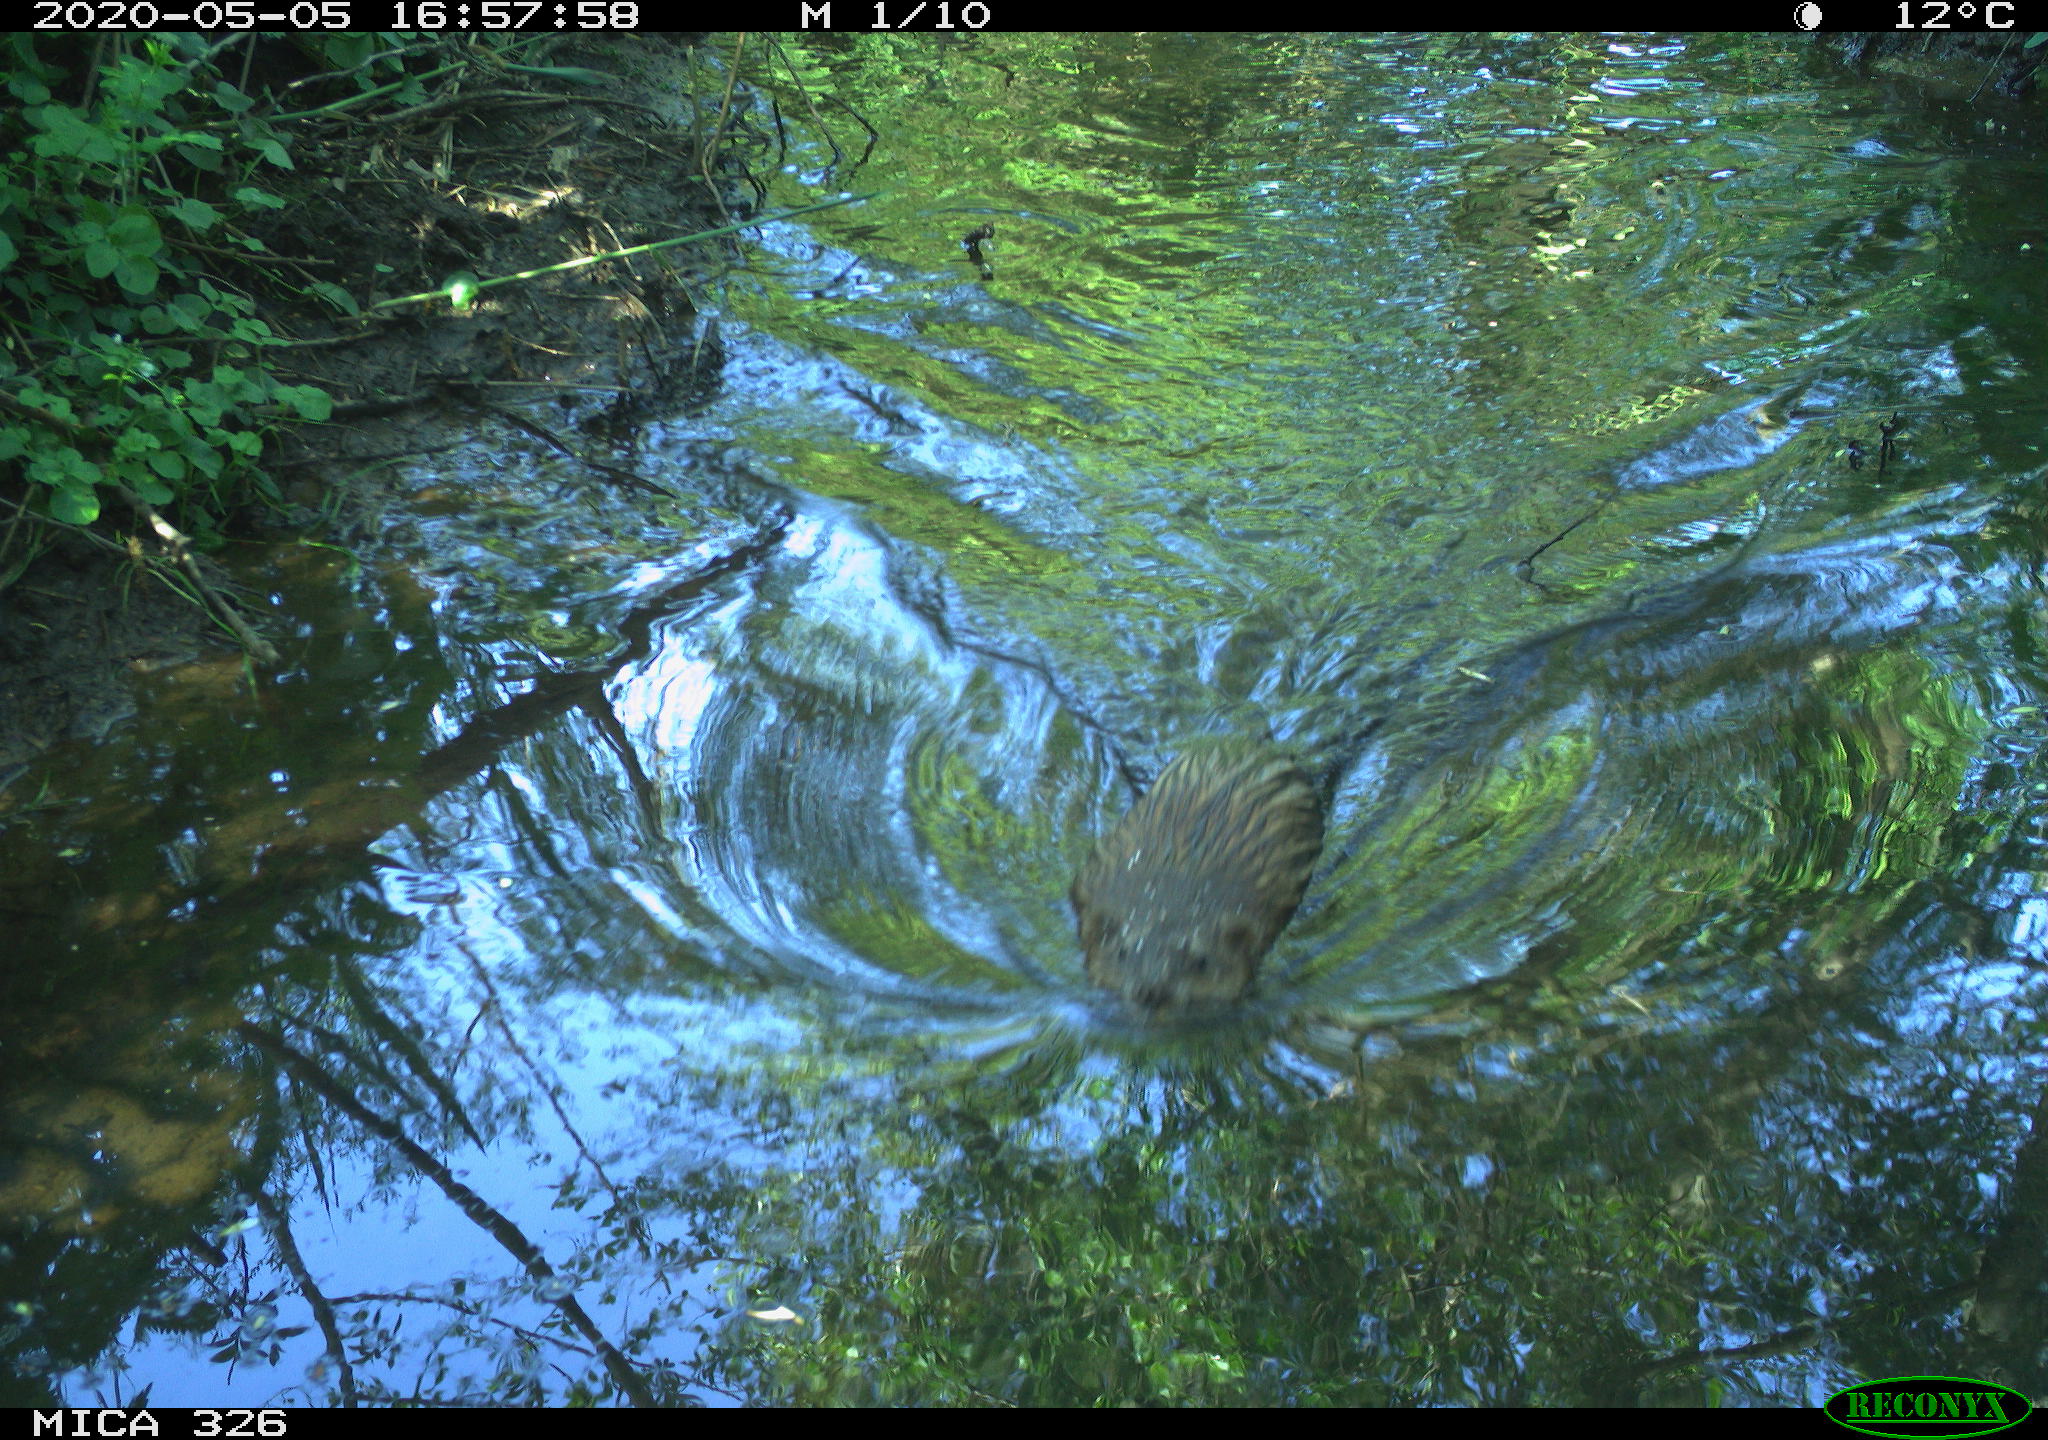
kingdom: Animalia
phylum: Chordata
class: Mammalia
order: Rodentia
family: Myocastoridae
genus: Myocastor
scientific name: Myocastor coypus
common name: Coypu
